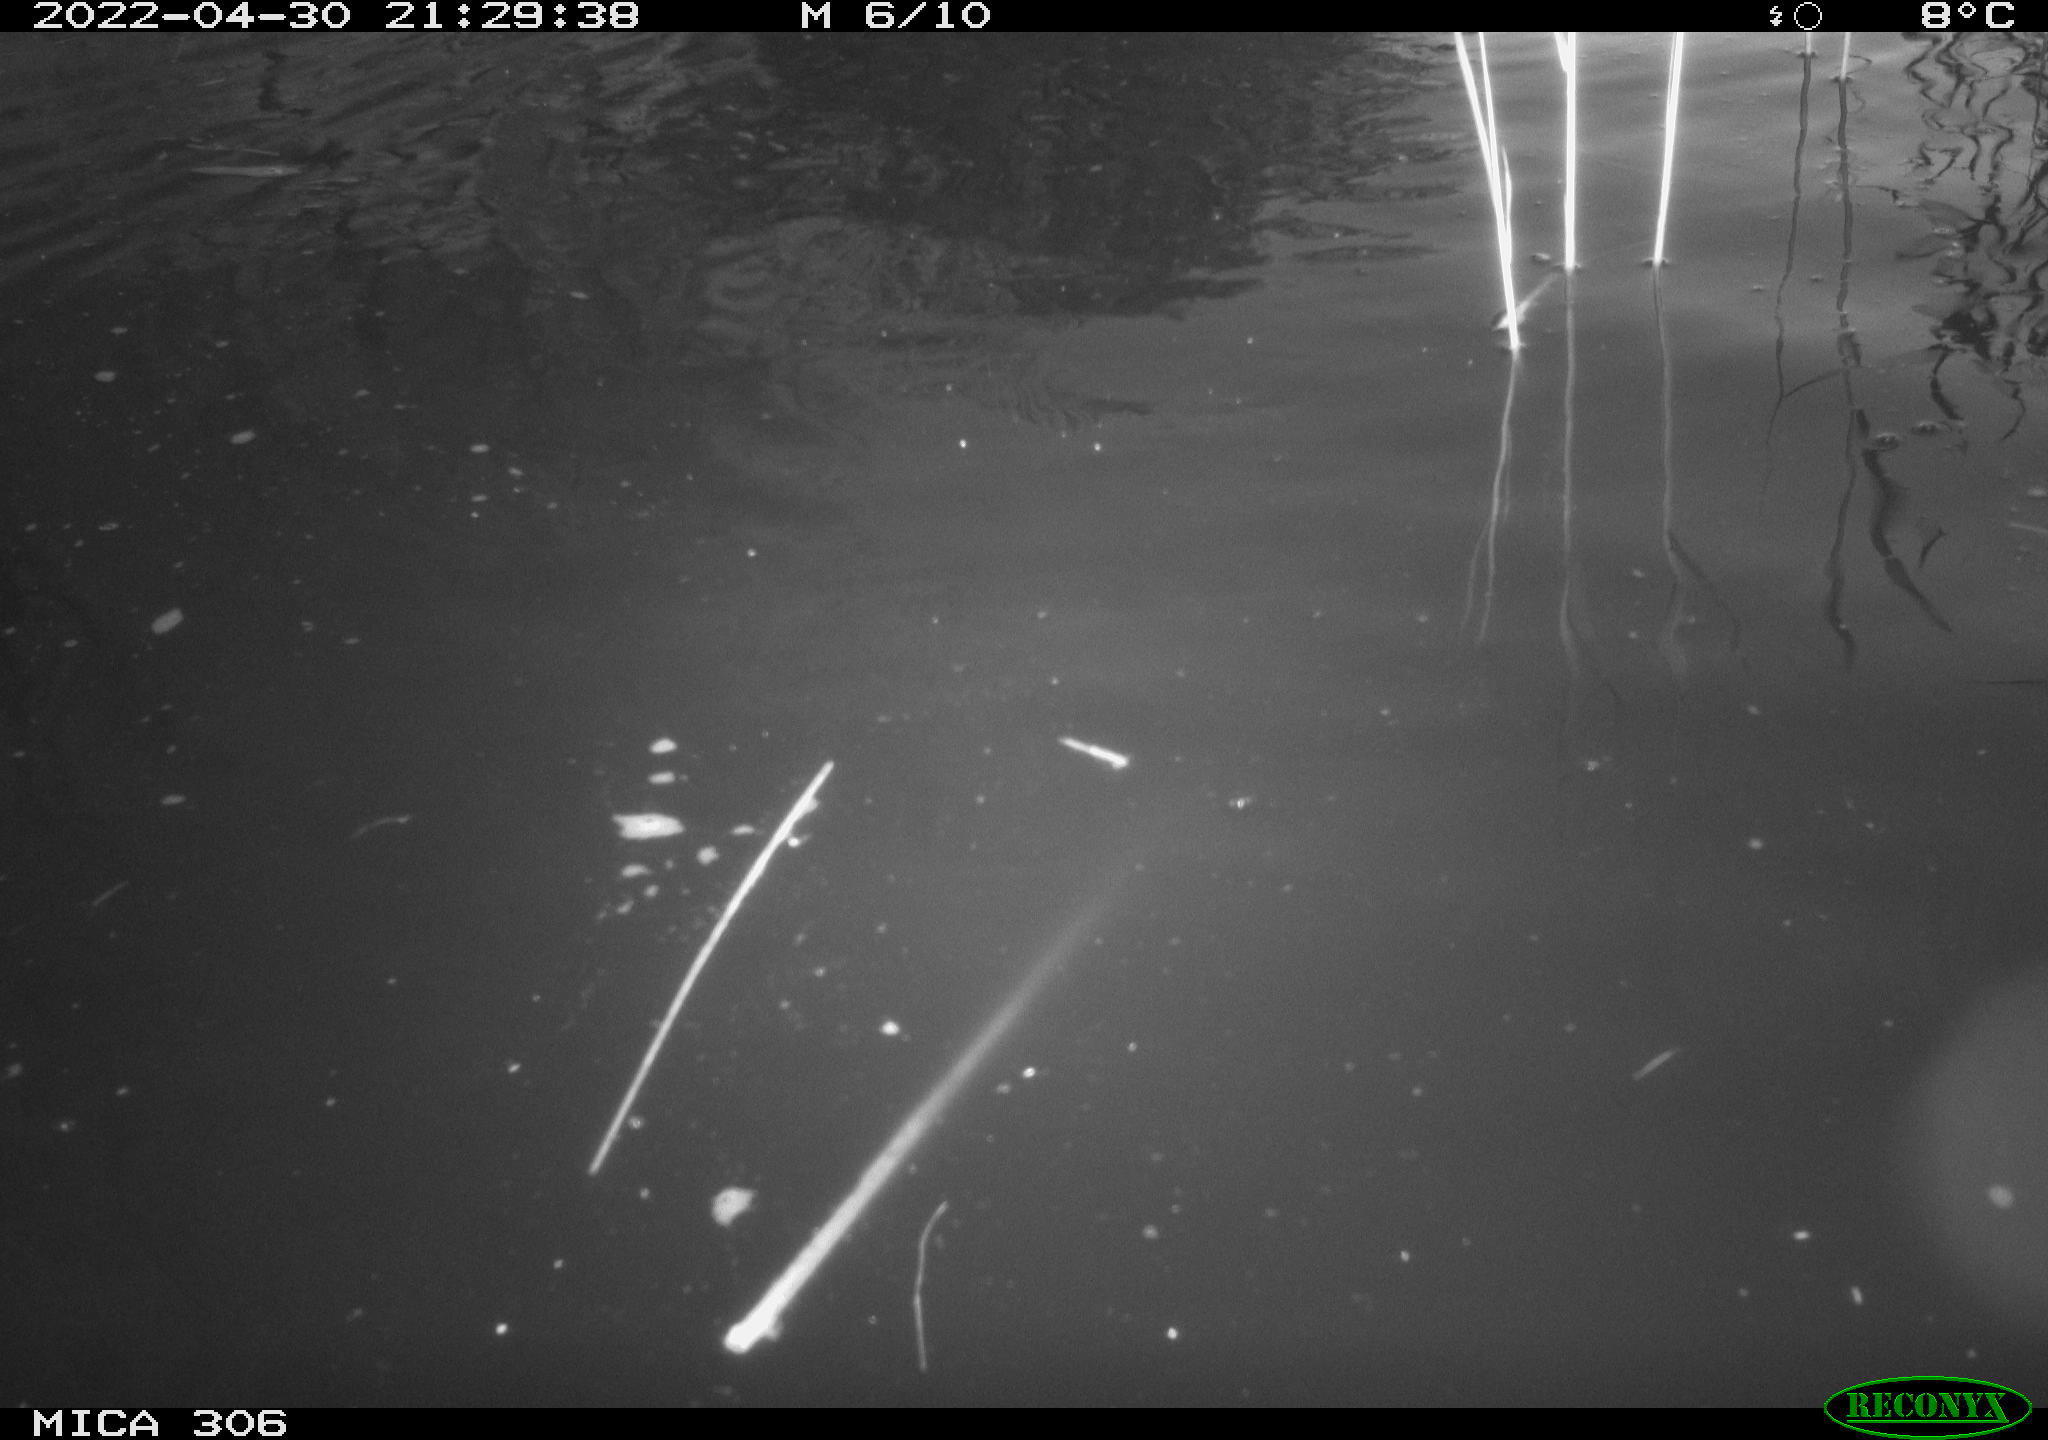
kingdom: Animalia
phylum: Chordata
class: Mammalia
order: Rodentia
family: Cricetidae
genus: Ondatra
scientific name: Ondatra zibethicus
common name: Muskrat
